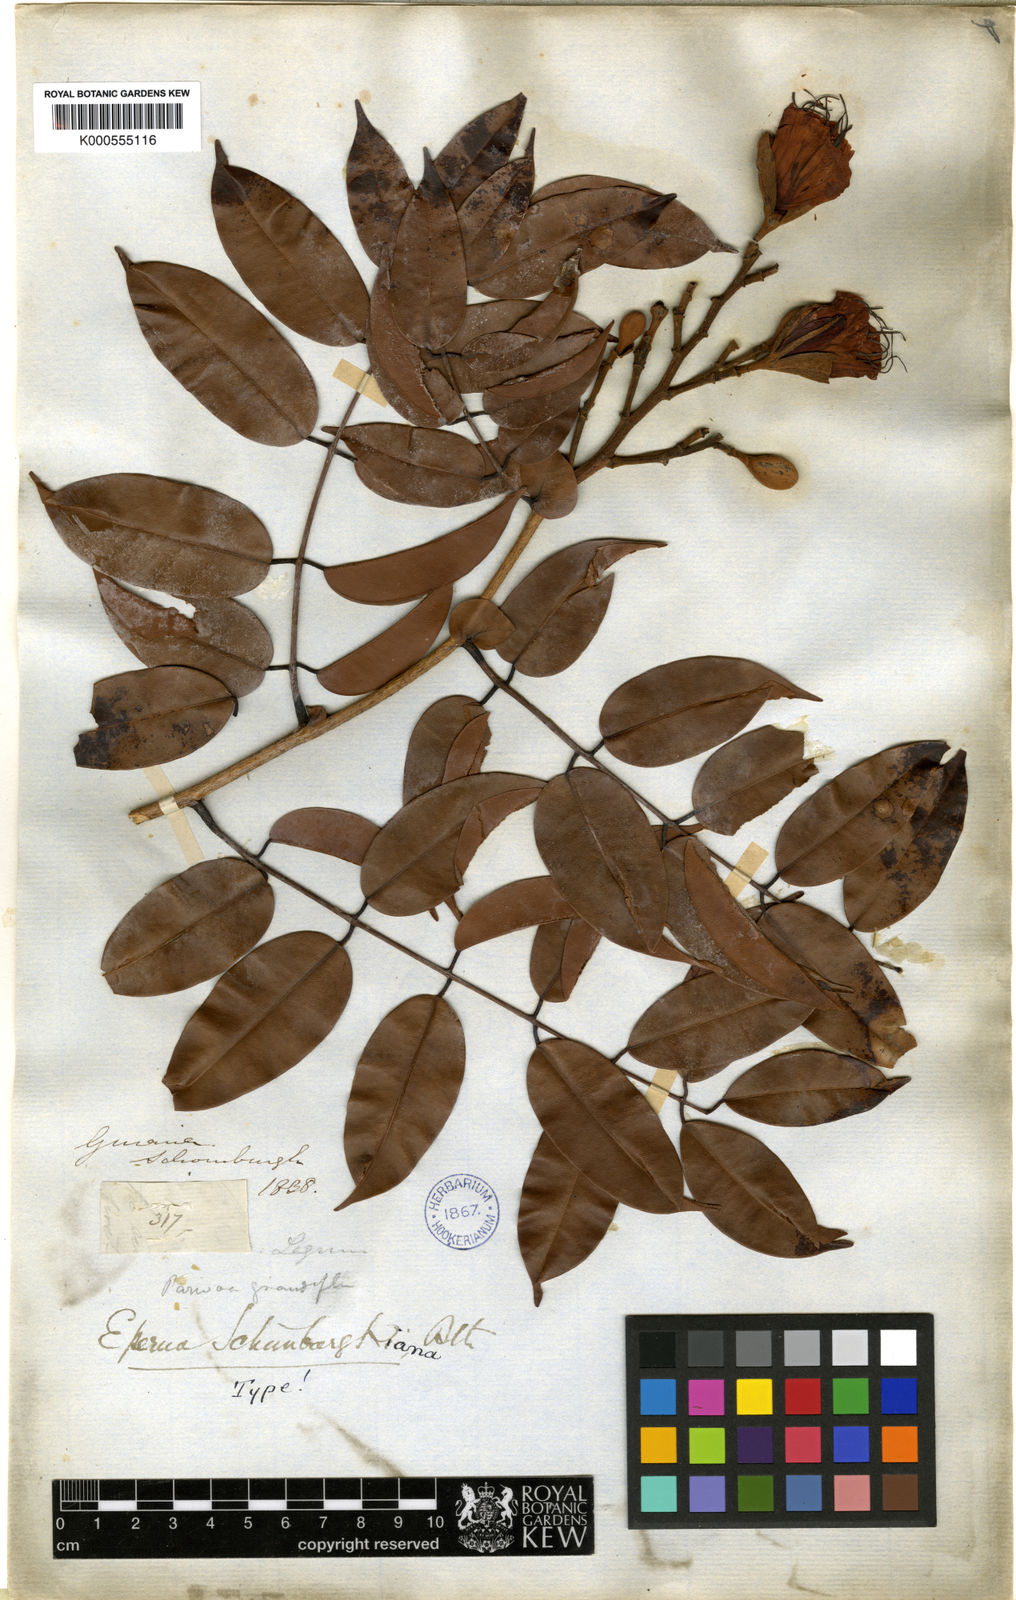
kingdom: Plantae
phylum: Tracheophyta
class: Magnoliopsida
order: Fabales
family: Fabaceae
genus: Eperua
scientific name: Eperua schomburgkiana
